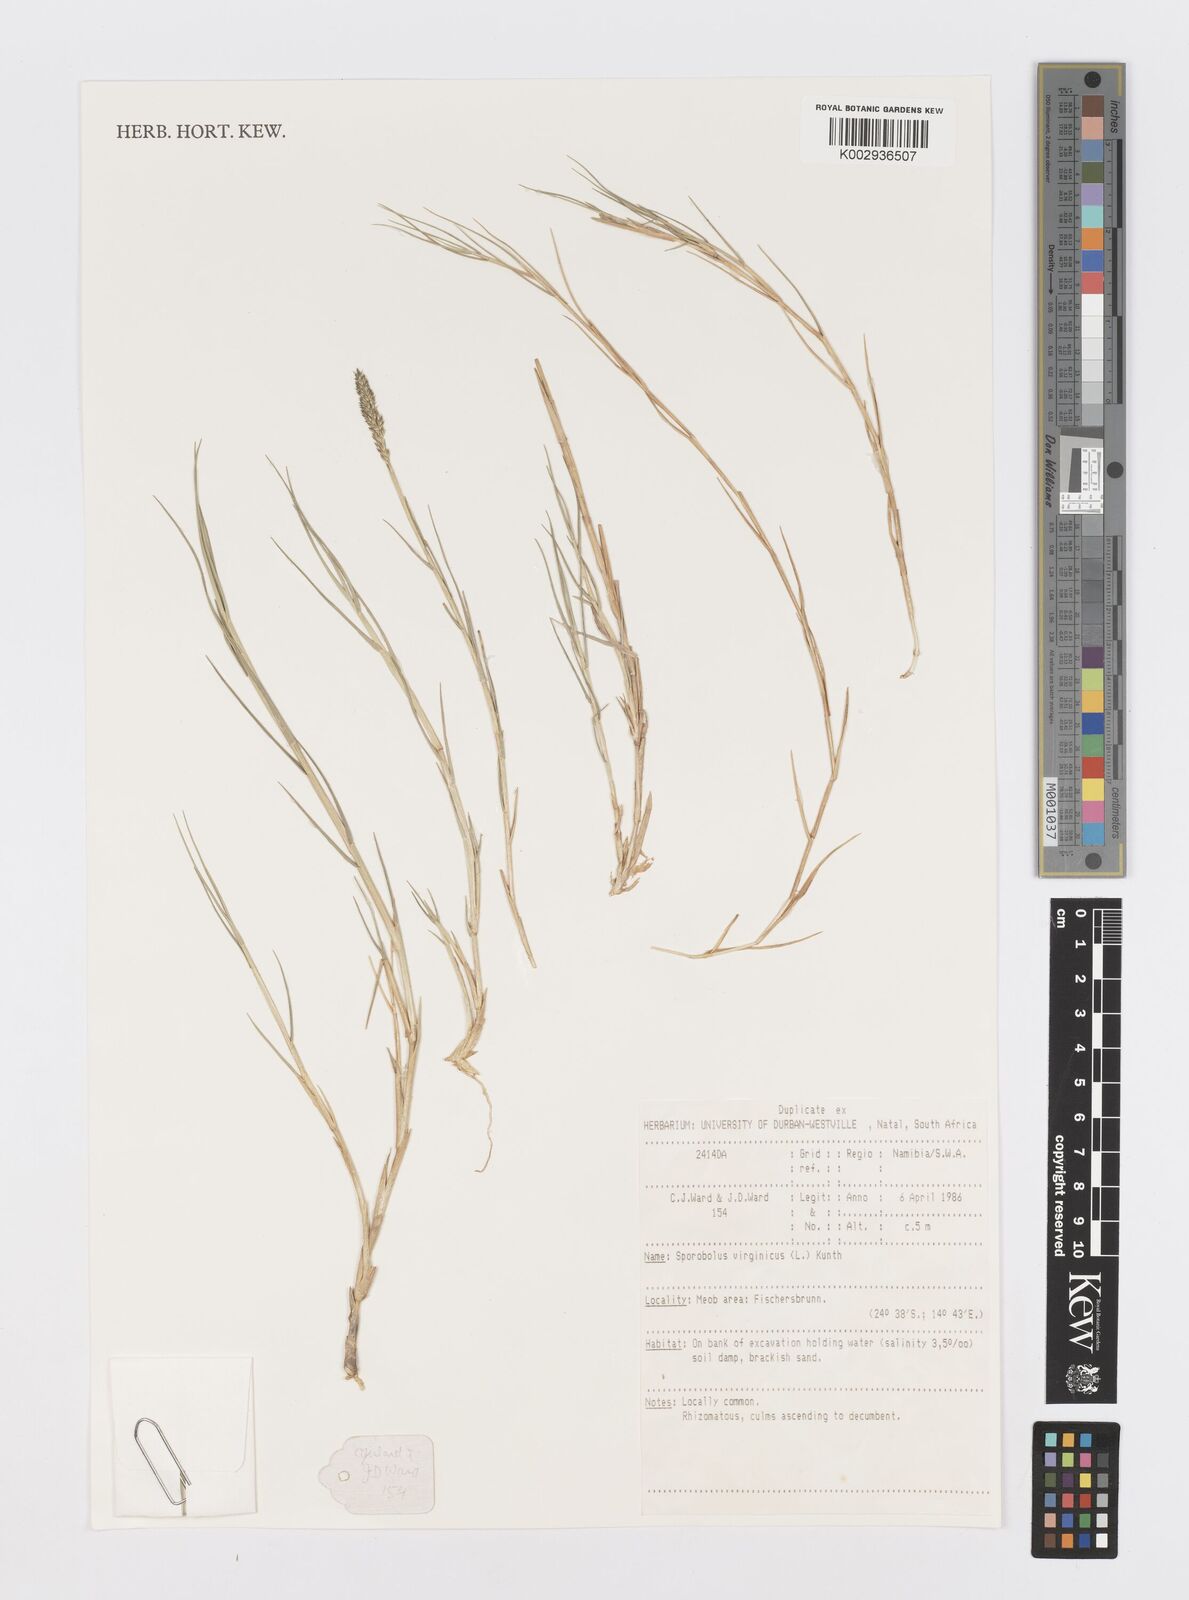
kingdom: Plantae
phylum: Tracheophyta
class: Liliopsida
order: Poales
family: Poaceae
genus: Sporobolus
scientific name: Sporobolus virginicus
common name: Beach dropseed
